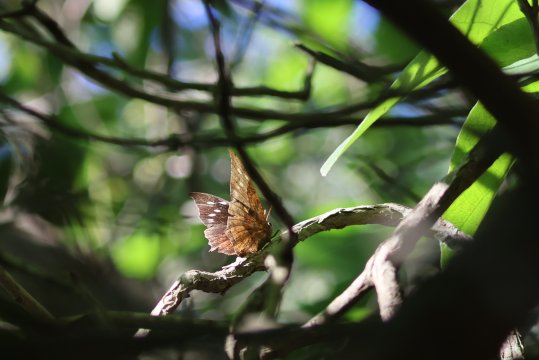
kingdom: Animalia
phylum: Arthropoda
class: Insecta
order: Lepidoptera
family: Nymphalidae
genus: Anaea
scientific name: Anaea pithyusa
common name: Pale-spotted Leafwing
